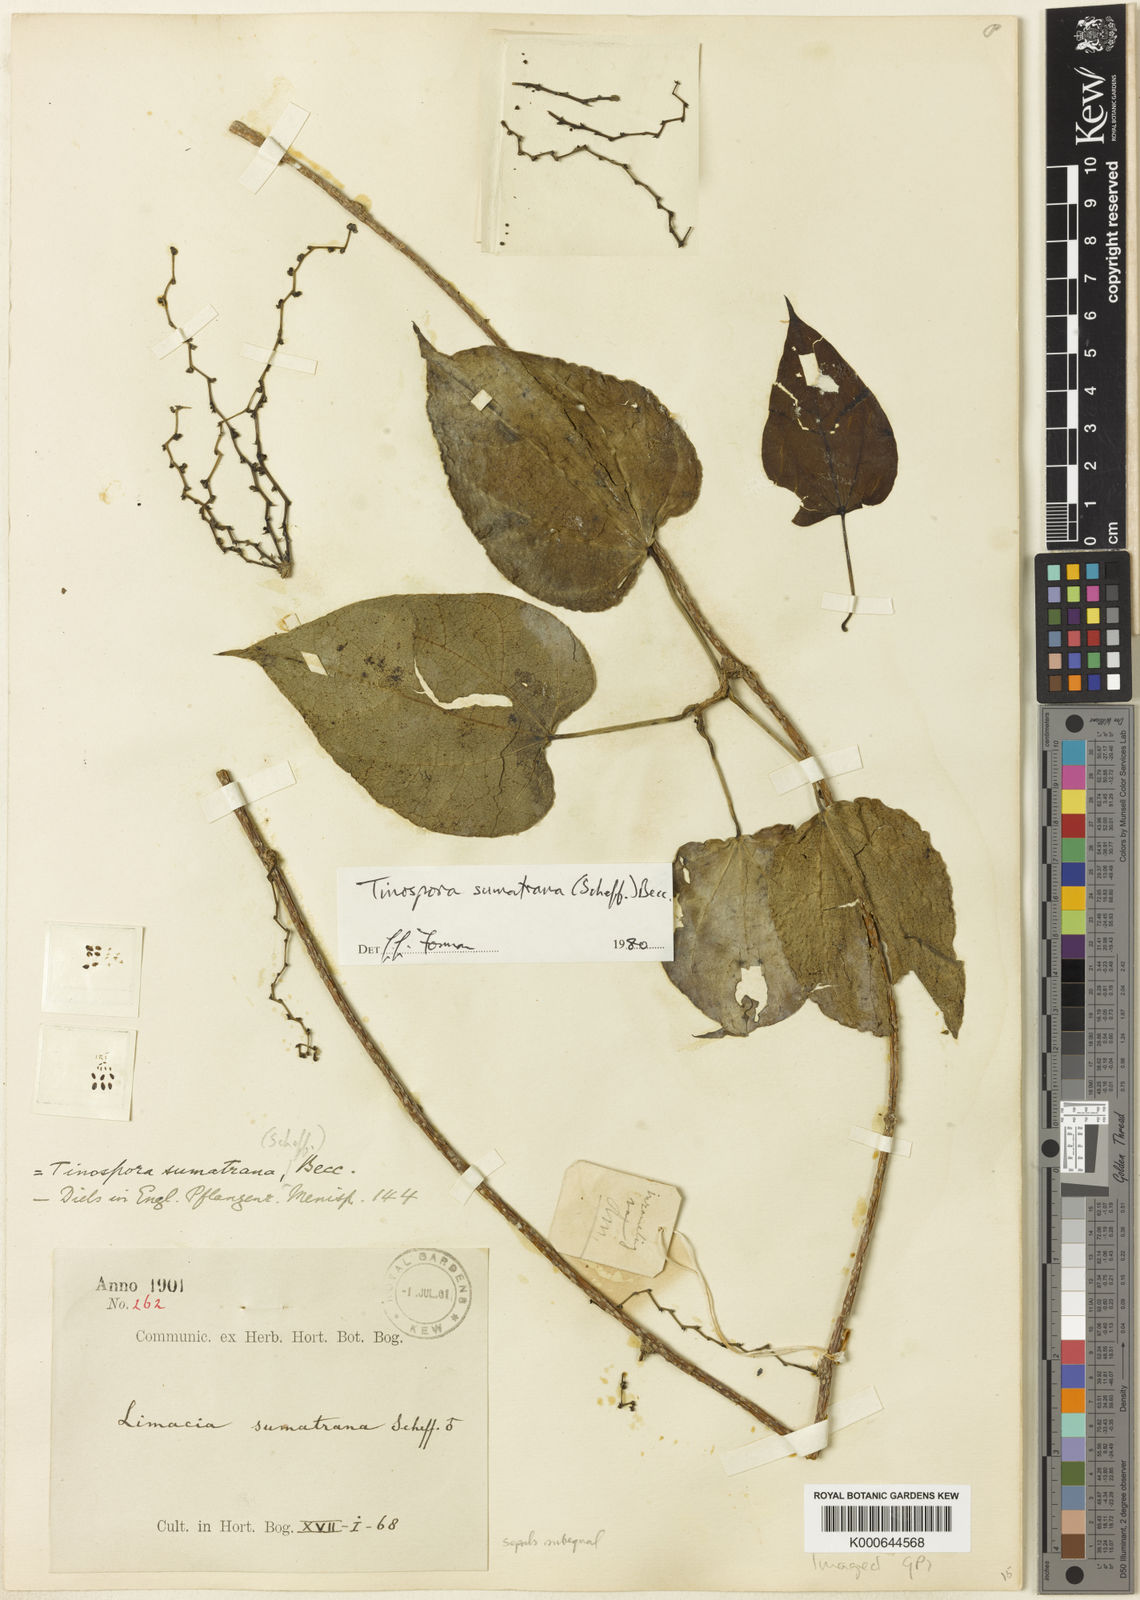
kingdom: Plantae
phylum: Tracheophyta
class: Magnoliopsida
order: Ranunculales
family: Menispermaceae
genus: Tinospora
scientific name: Tinospora sumatrana
